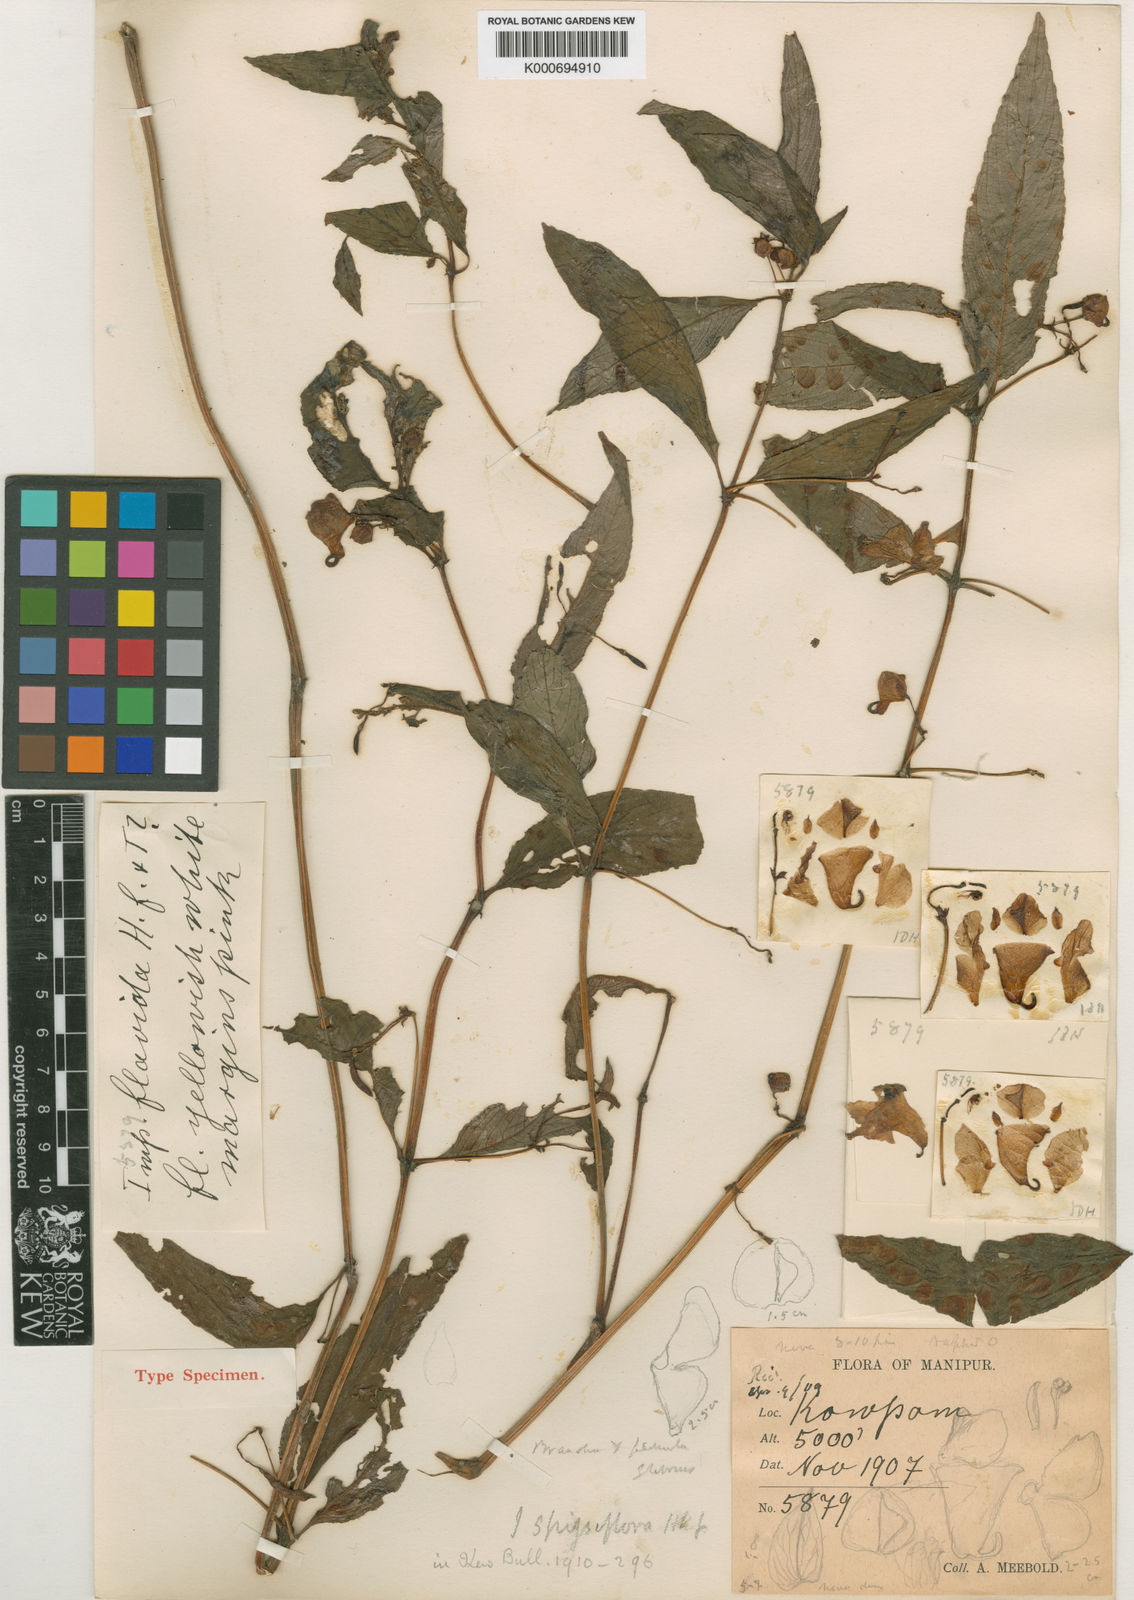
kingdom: Plantae
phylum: Tracheophyta
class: Magnoliopsida
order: Ericales
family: Balsaminaceae
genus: Impatiens
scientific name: Impatiens spissiflora
